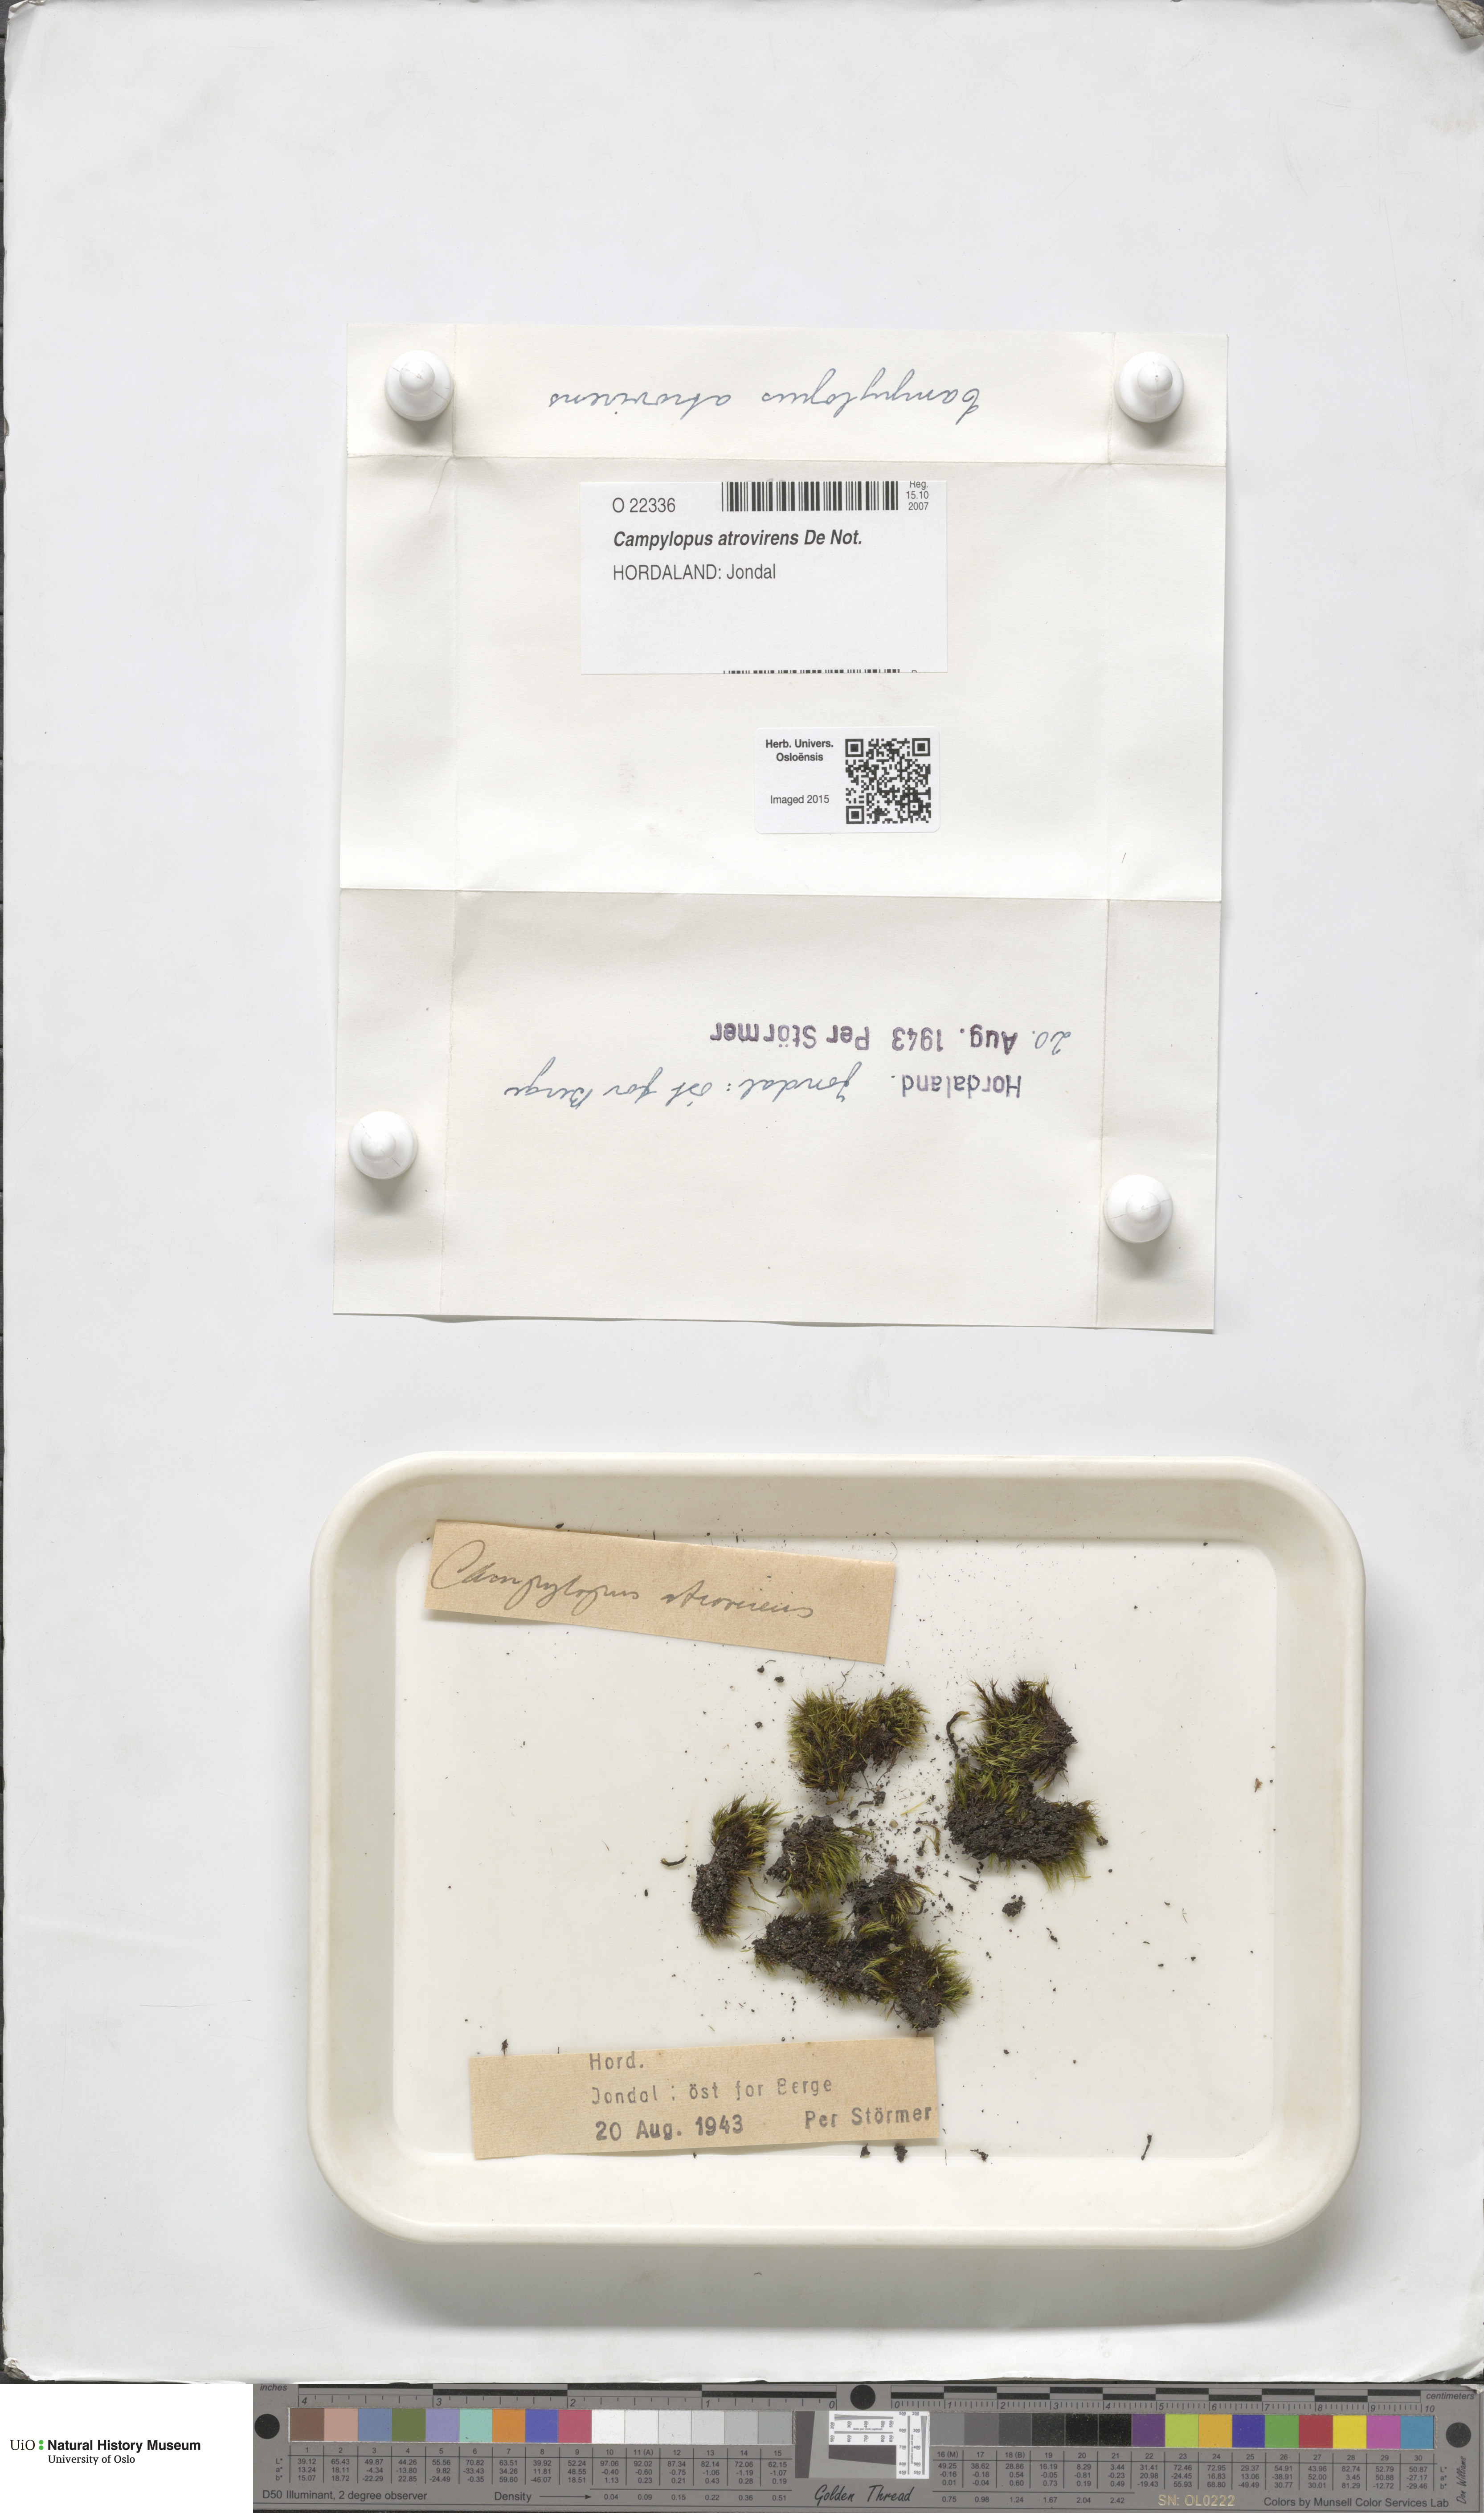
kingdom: Plantae
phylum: Bryophyta
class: Bryopsida
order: Dicranales
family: Leucobryaceae
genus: Campylopus
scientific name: Campylopus atrovirens
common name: Bristly swan-neck moss
